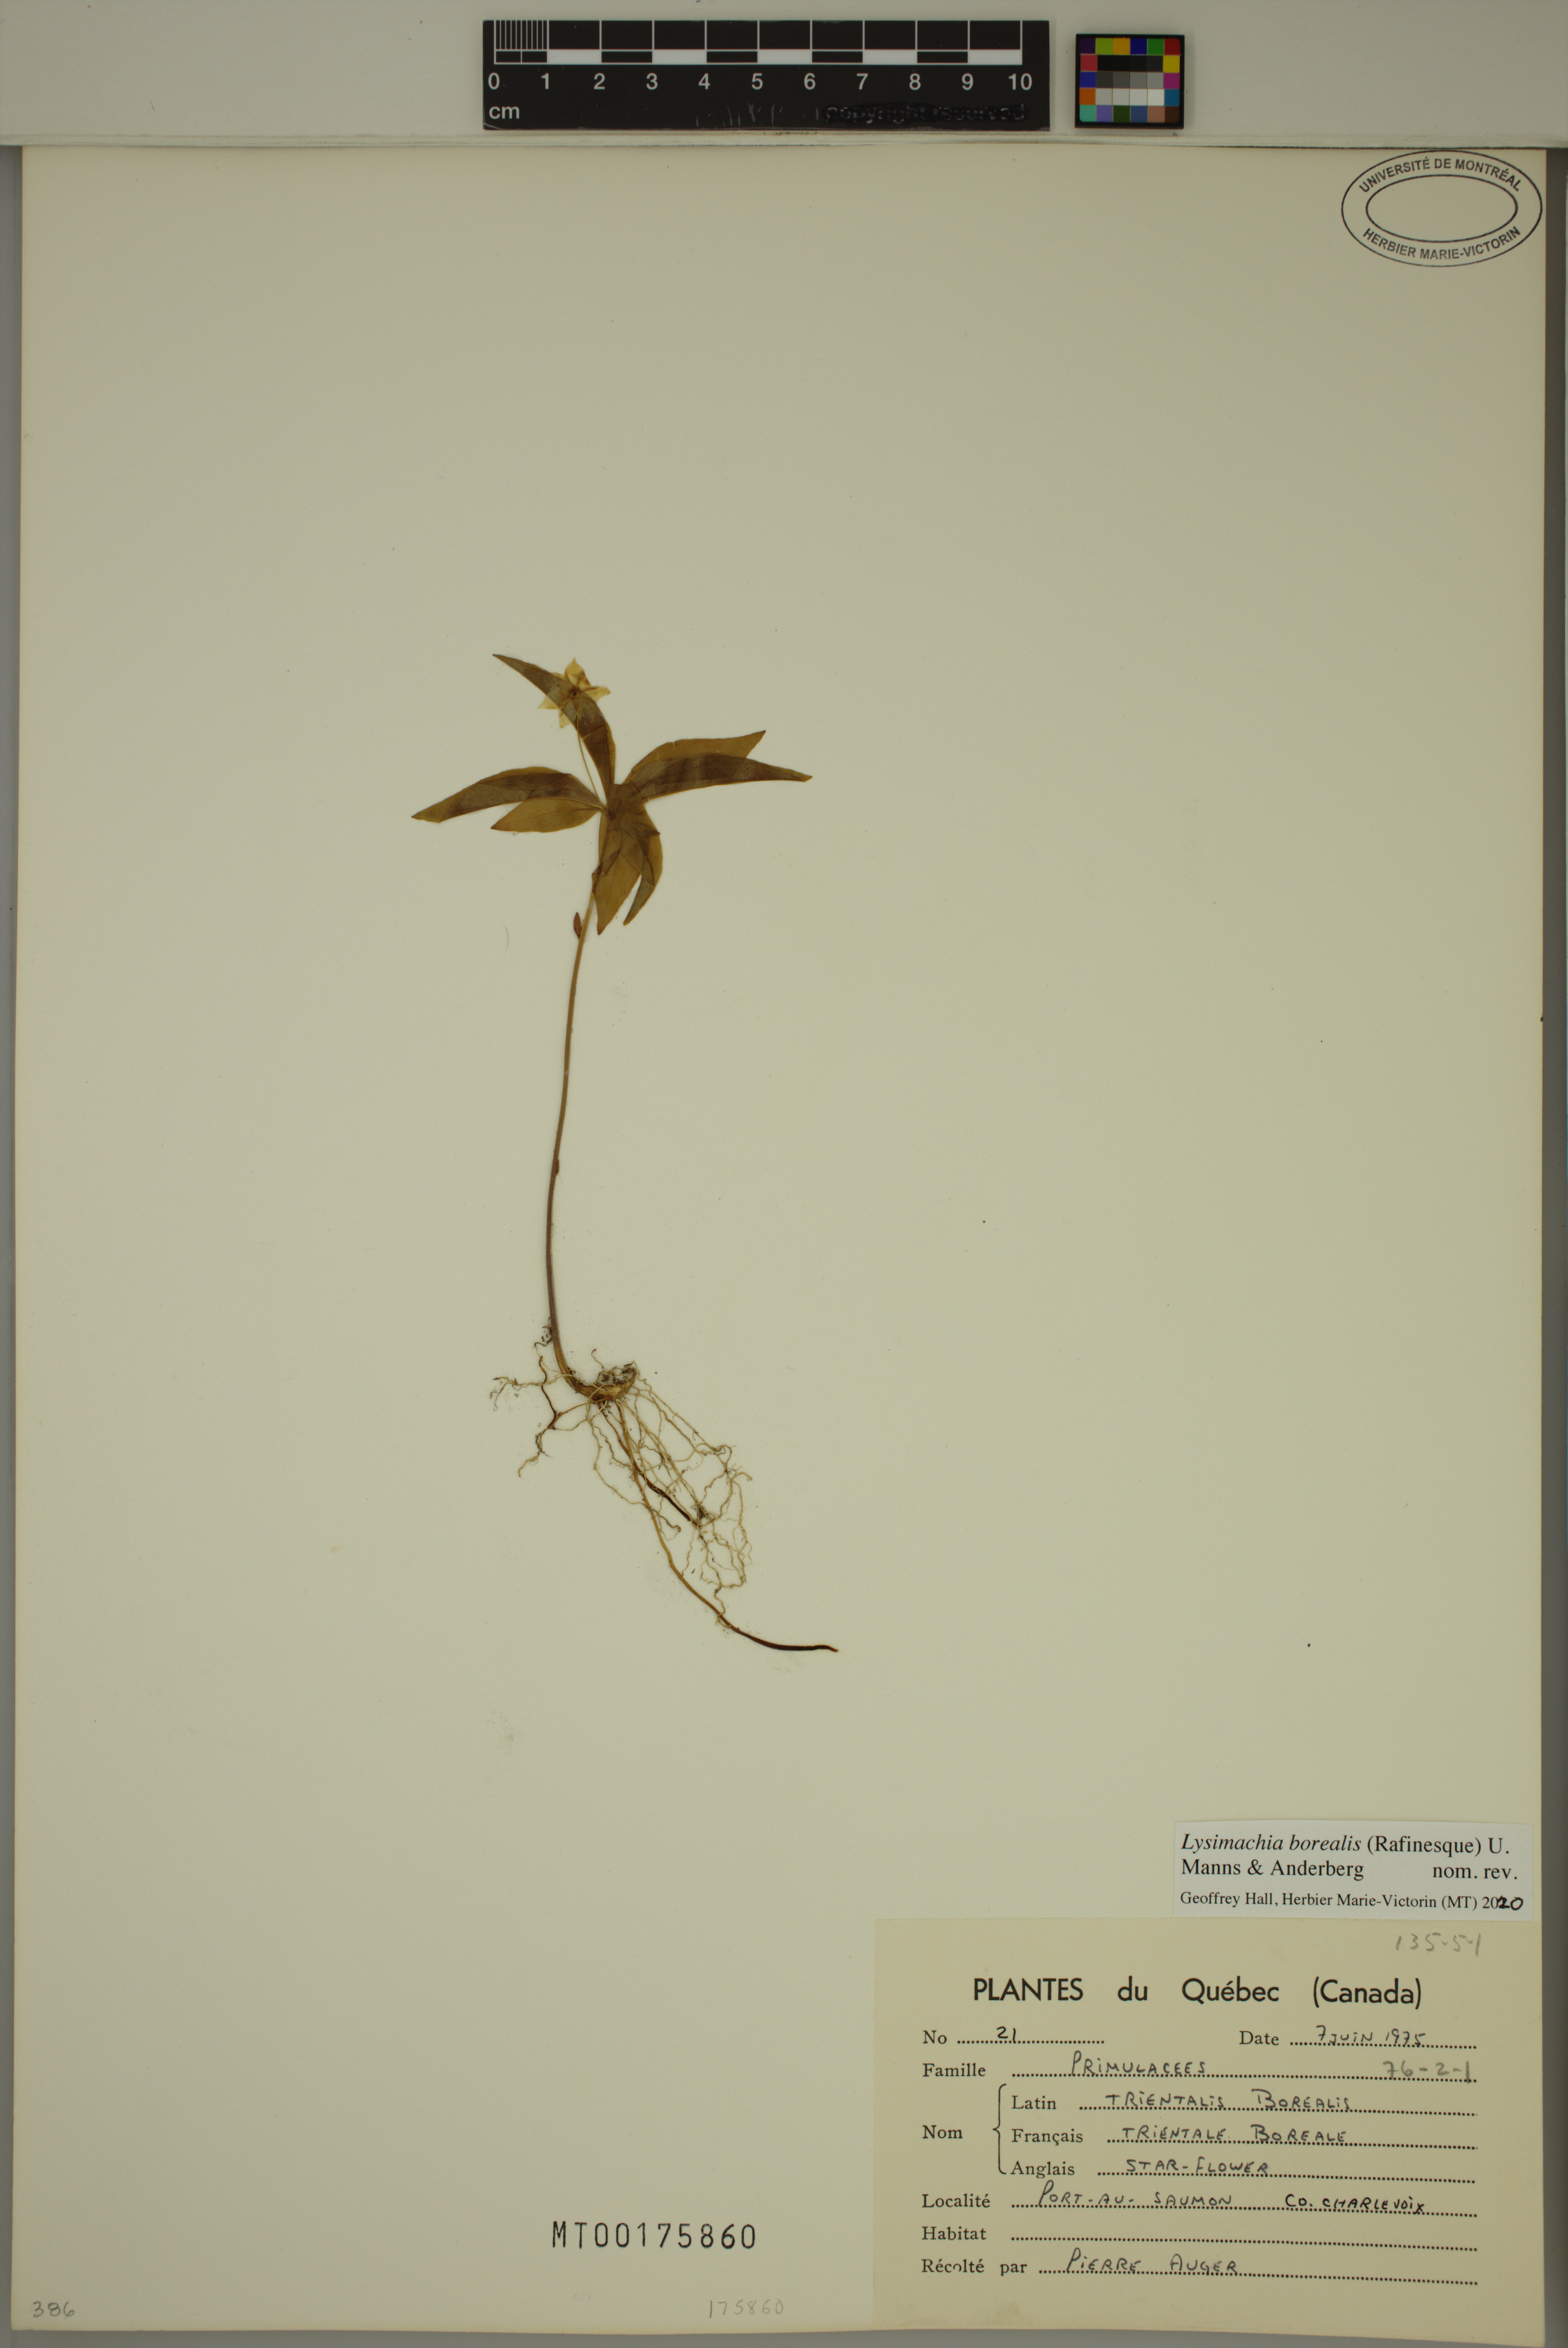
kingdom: Plantae
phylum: Tracheophyta
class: Magnoliopsida
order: Ericales
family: Primulaceae
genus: Lysimachia
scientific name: Lysimachia borealis
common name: American starflower
